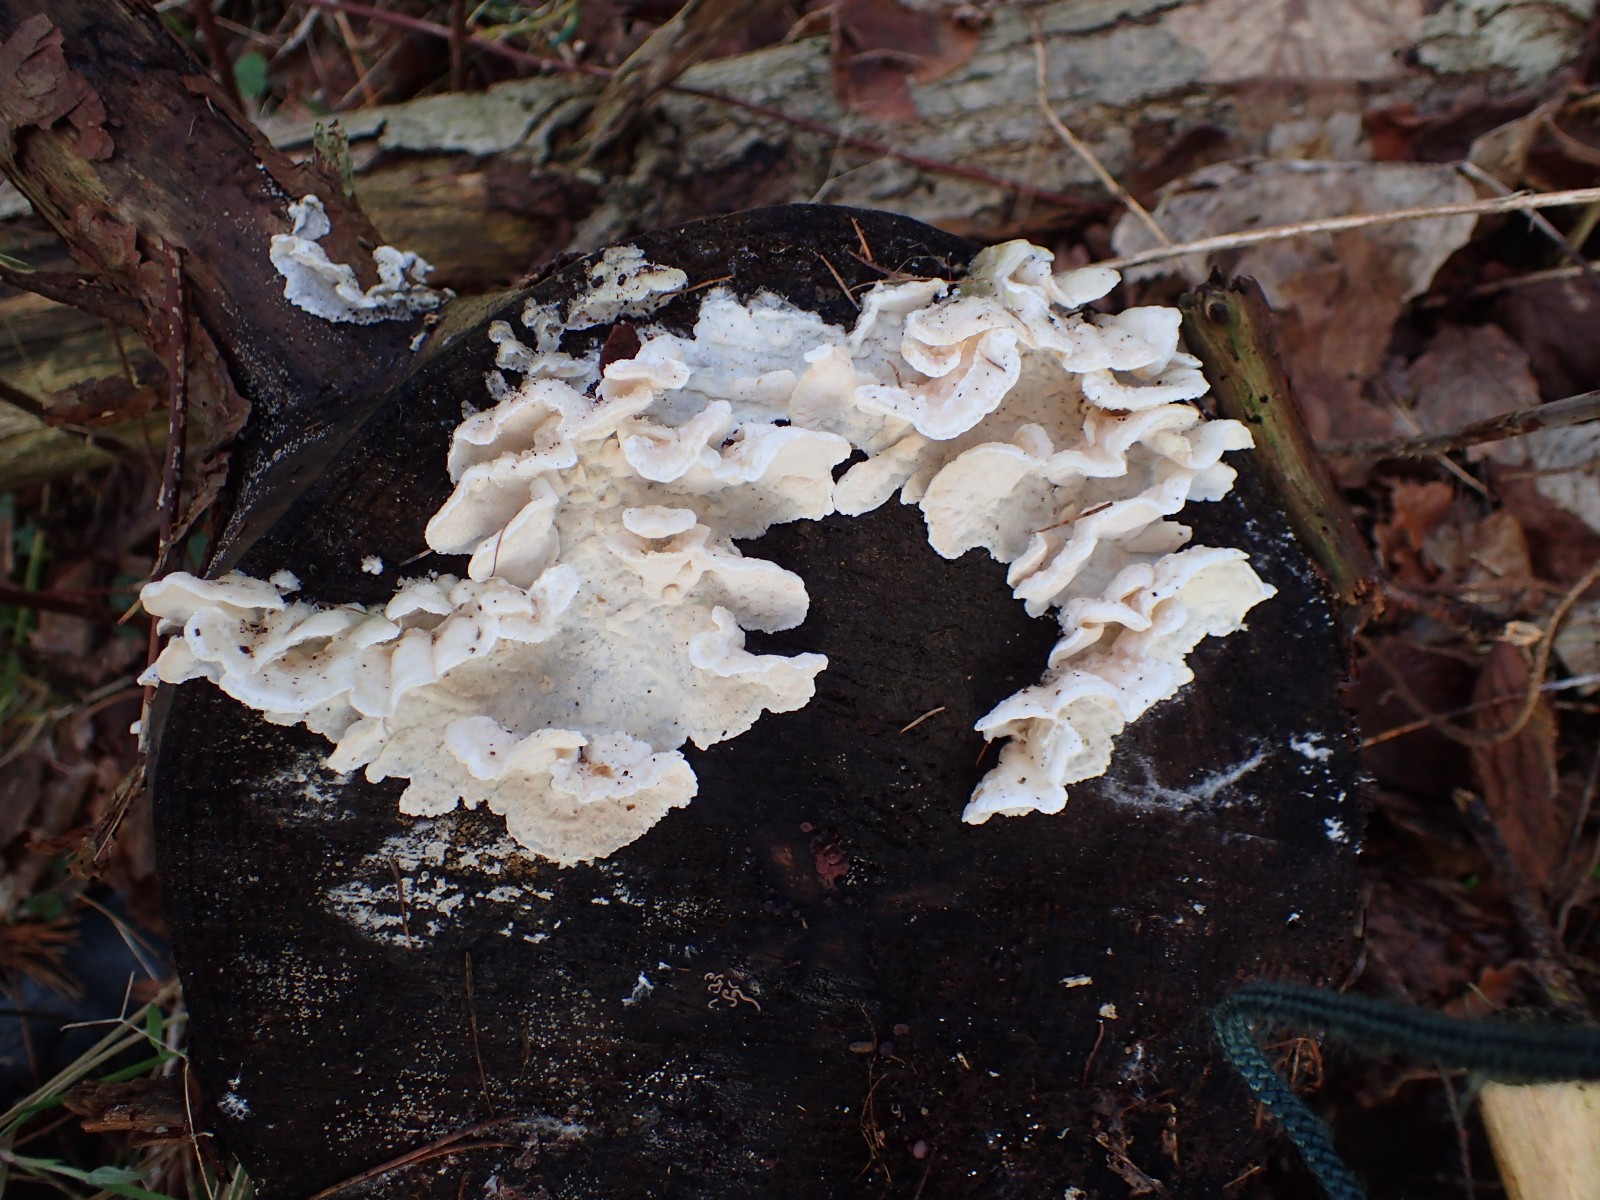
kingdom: Fungi
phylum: Basidiomycota
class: Agaricomycetes
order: Polyporales
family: Incrustoporiaceae
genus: Skeletocutis
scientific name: Skeletocutis amorpha
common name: orange krystalporesvamp
